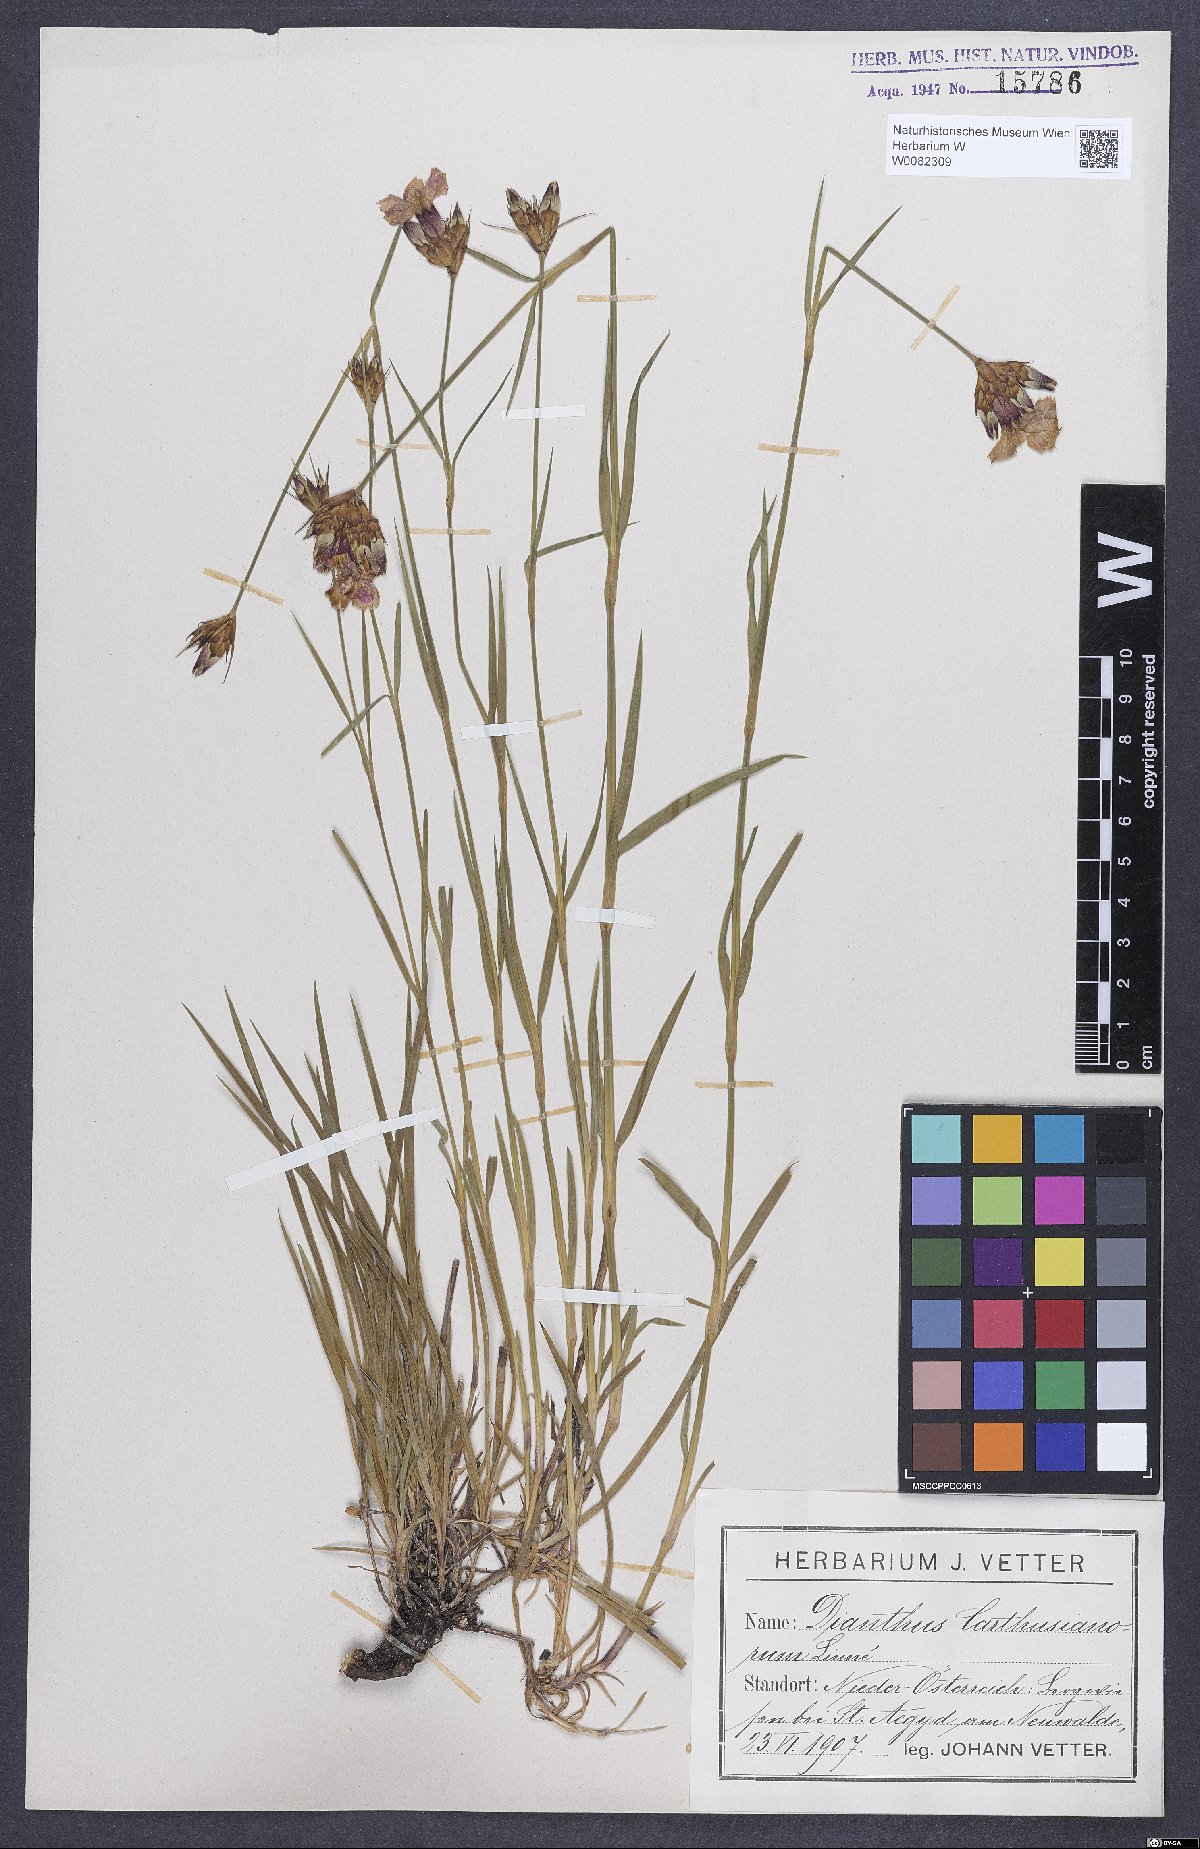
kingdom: Plantae
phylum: Tracheophyta
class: Magnoliopsida
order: Caryophyllales
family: Caryophyllaceae
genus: Dianthus
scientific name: Dianthus carthusianorum
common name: Carthusian pink
